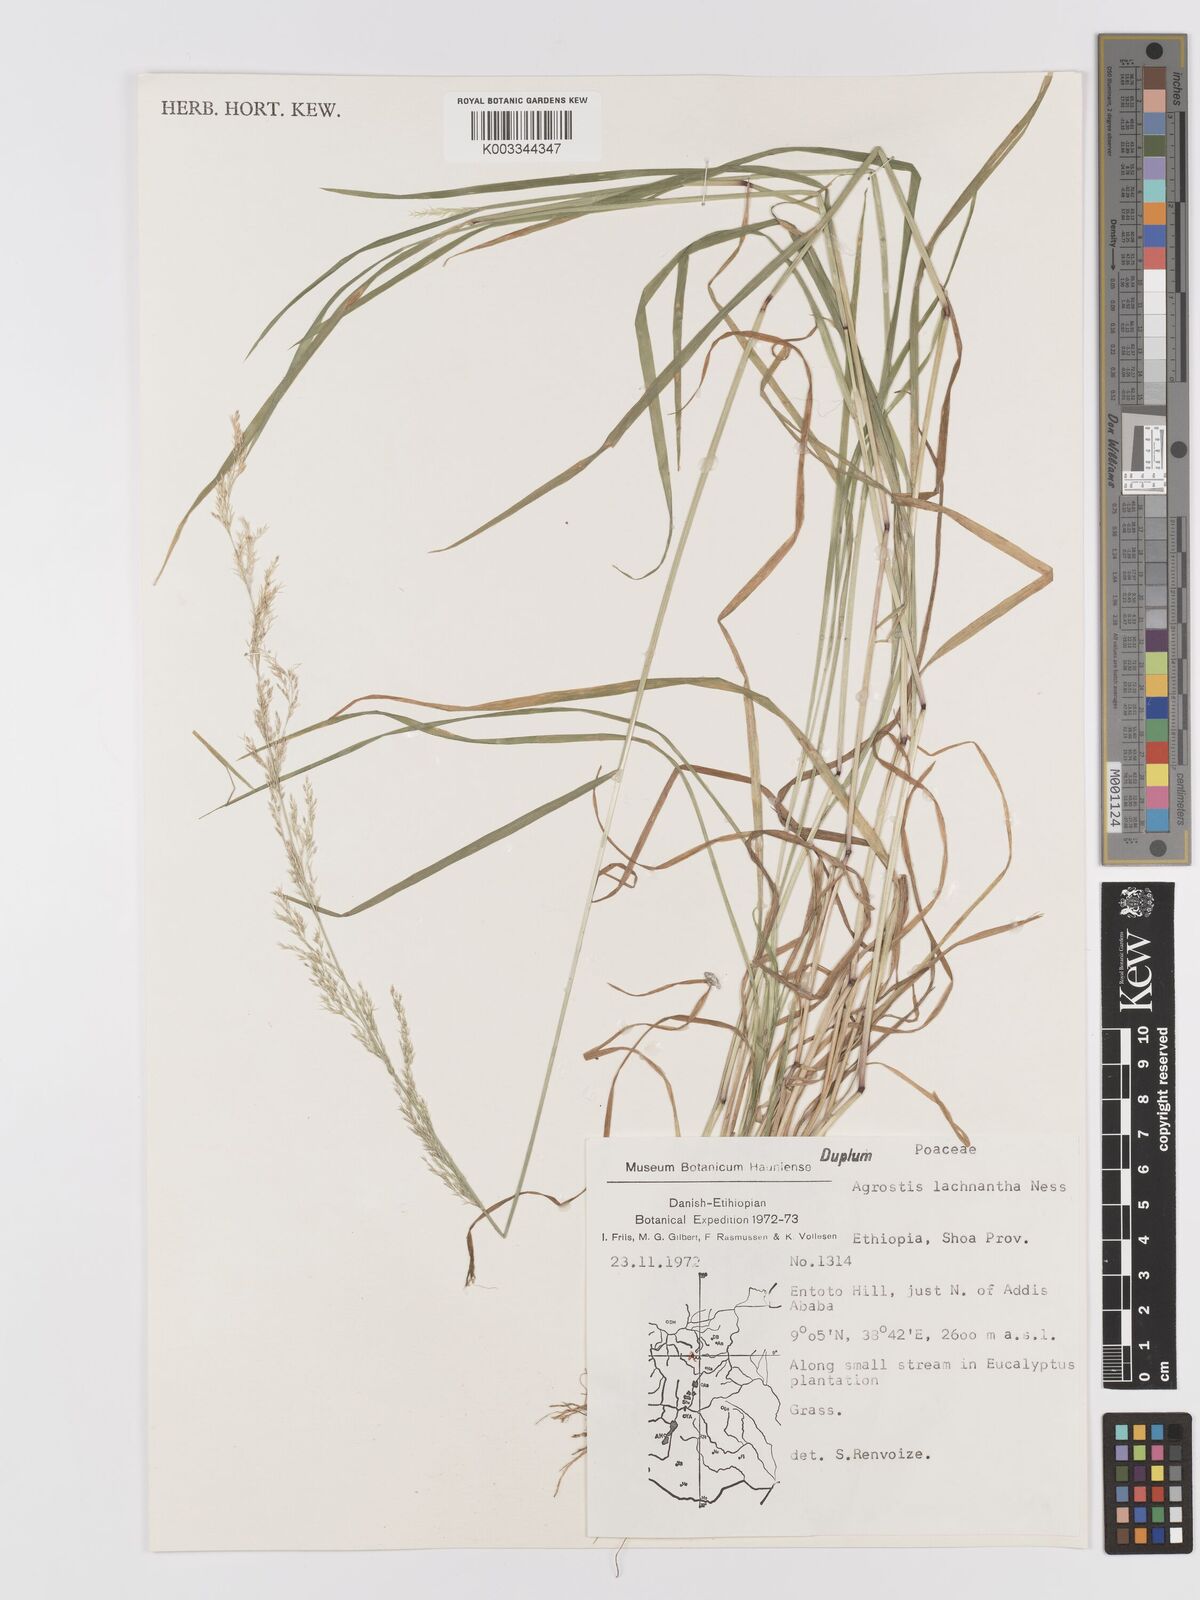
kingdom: Plantae
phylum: Tracheophyta
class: Liliopsida
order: Poales
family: Poaceae
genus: Lachnagrostis
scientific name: Lachnagrostis lachnantha
